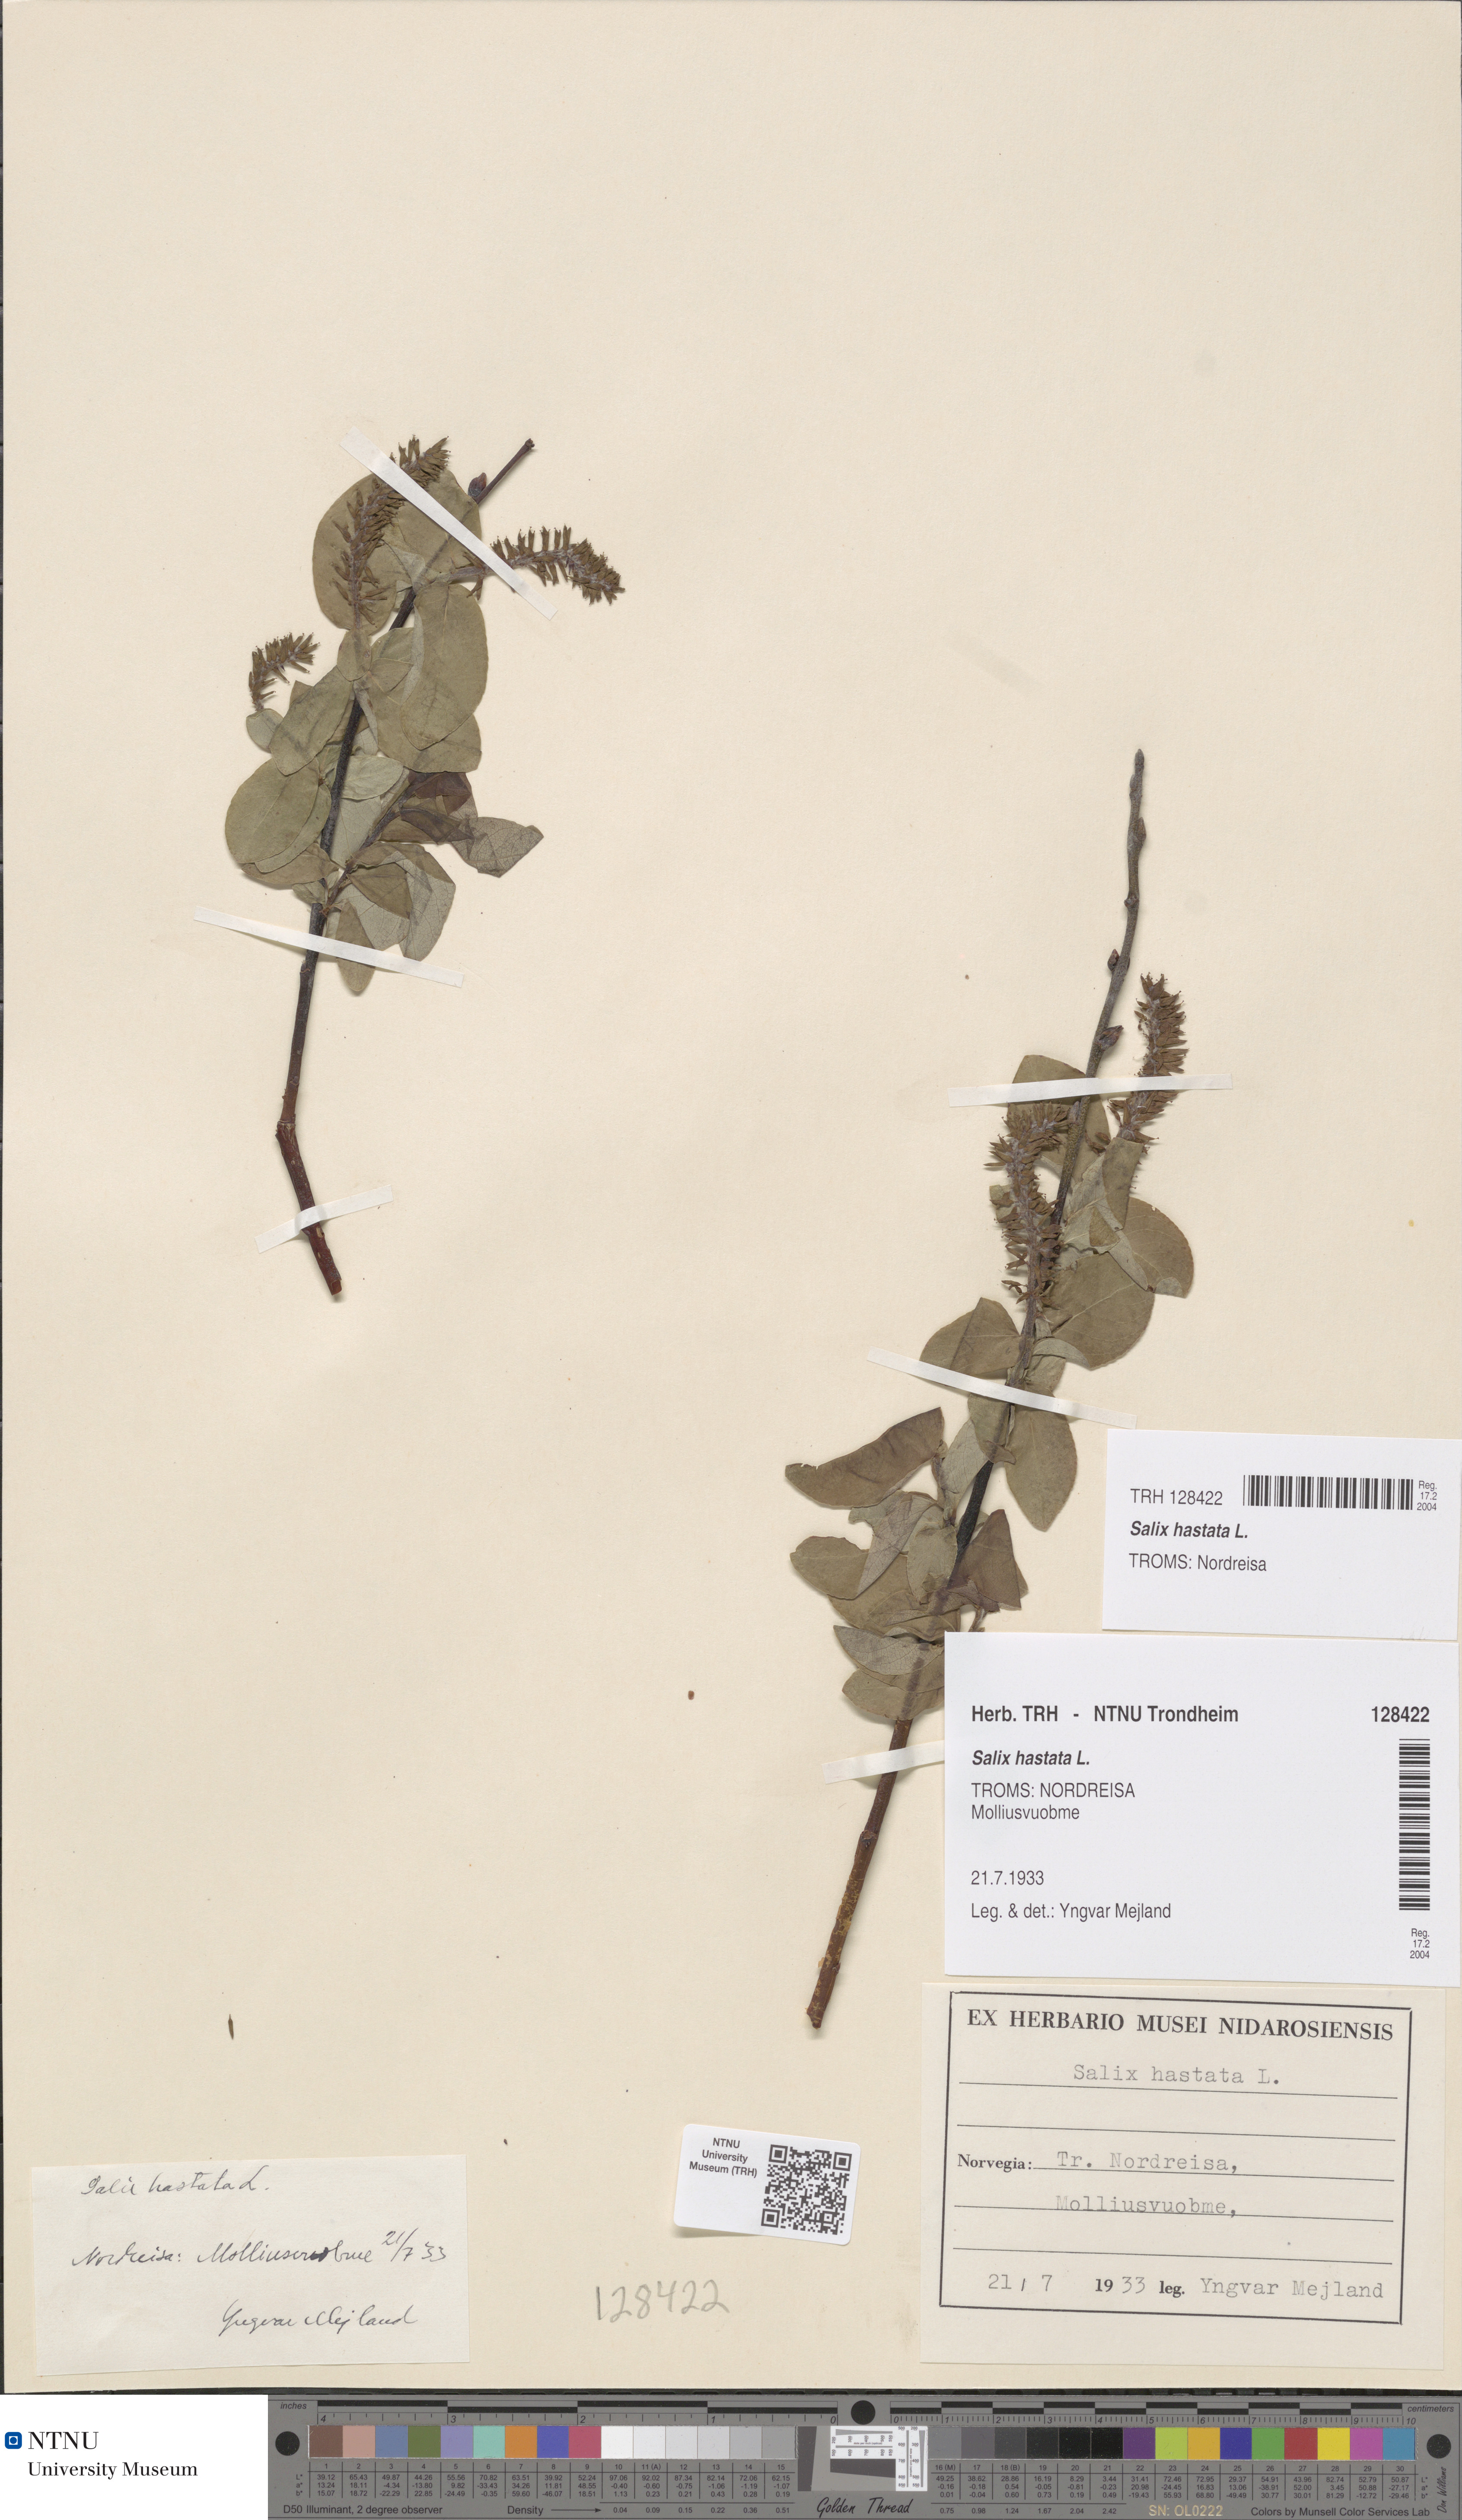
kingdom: Plantae
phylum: Tracheophyta
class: Magnoliopsida
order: Malpighiales
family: Salicaceae
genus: Salix
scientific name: Salix hastata
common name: Halberd willow
